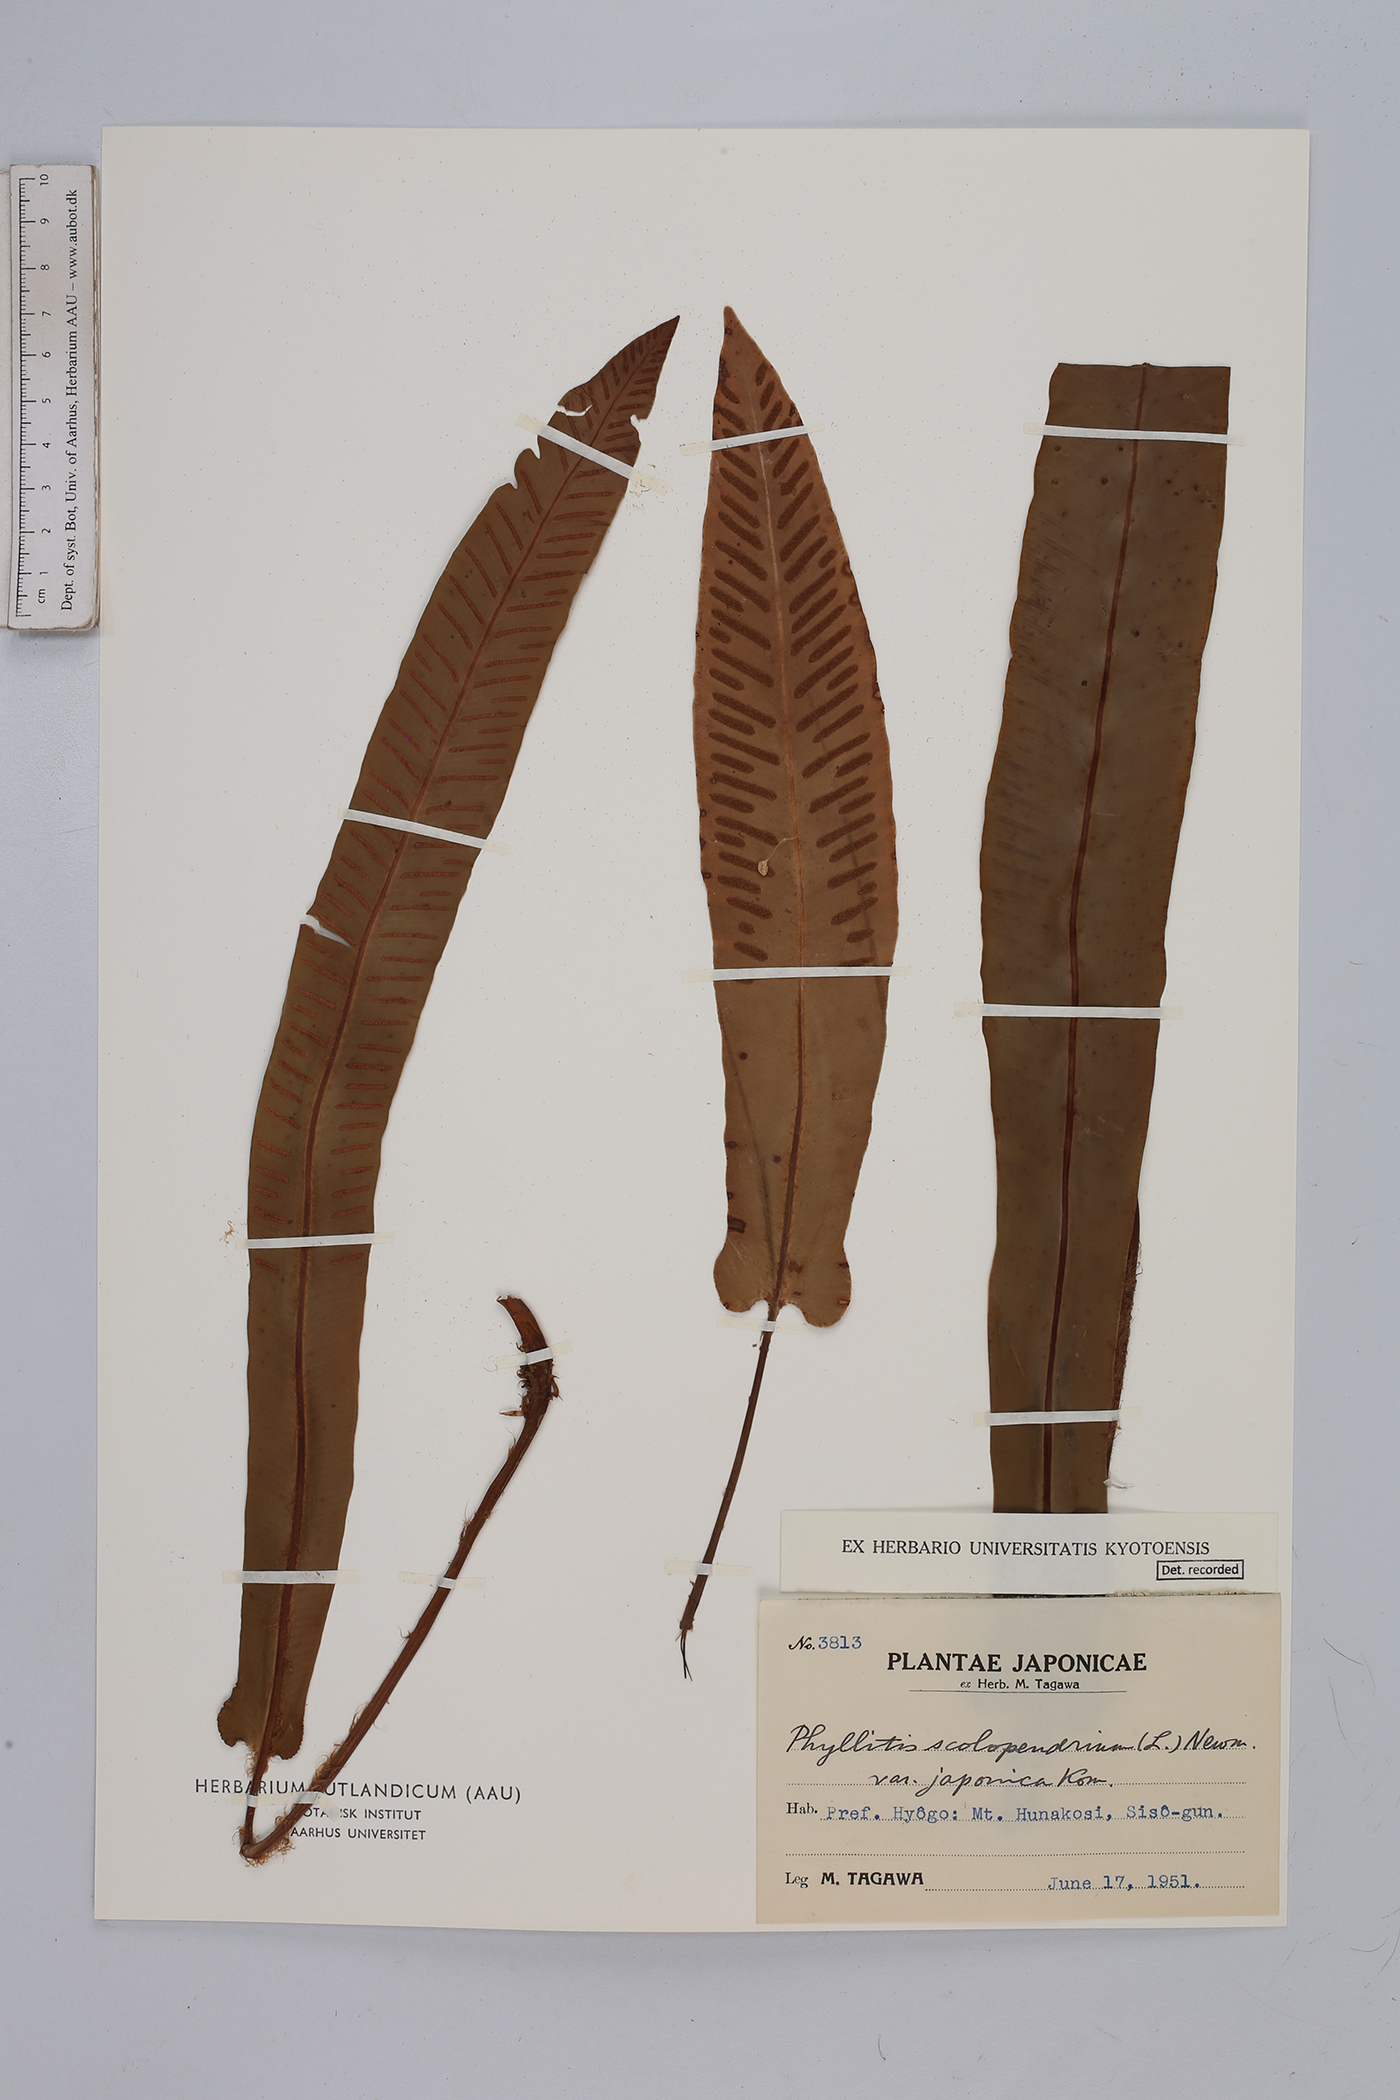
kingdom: Plantae
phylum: Tracheophyta
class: Polypodiopsida
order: Polypodiales
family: Aspleniaceae
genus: Asplenium
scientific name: Asplenium scolopendrium
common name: Hart's-tongue fern
